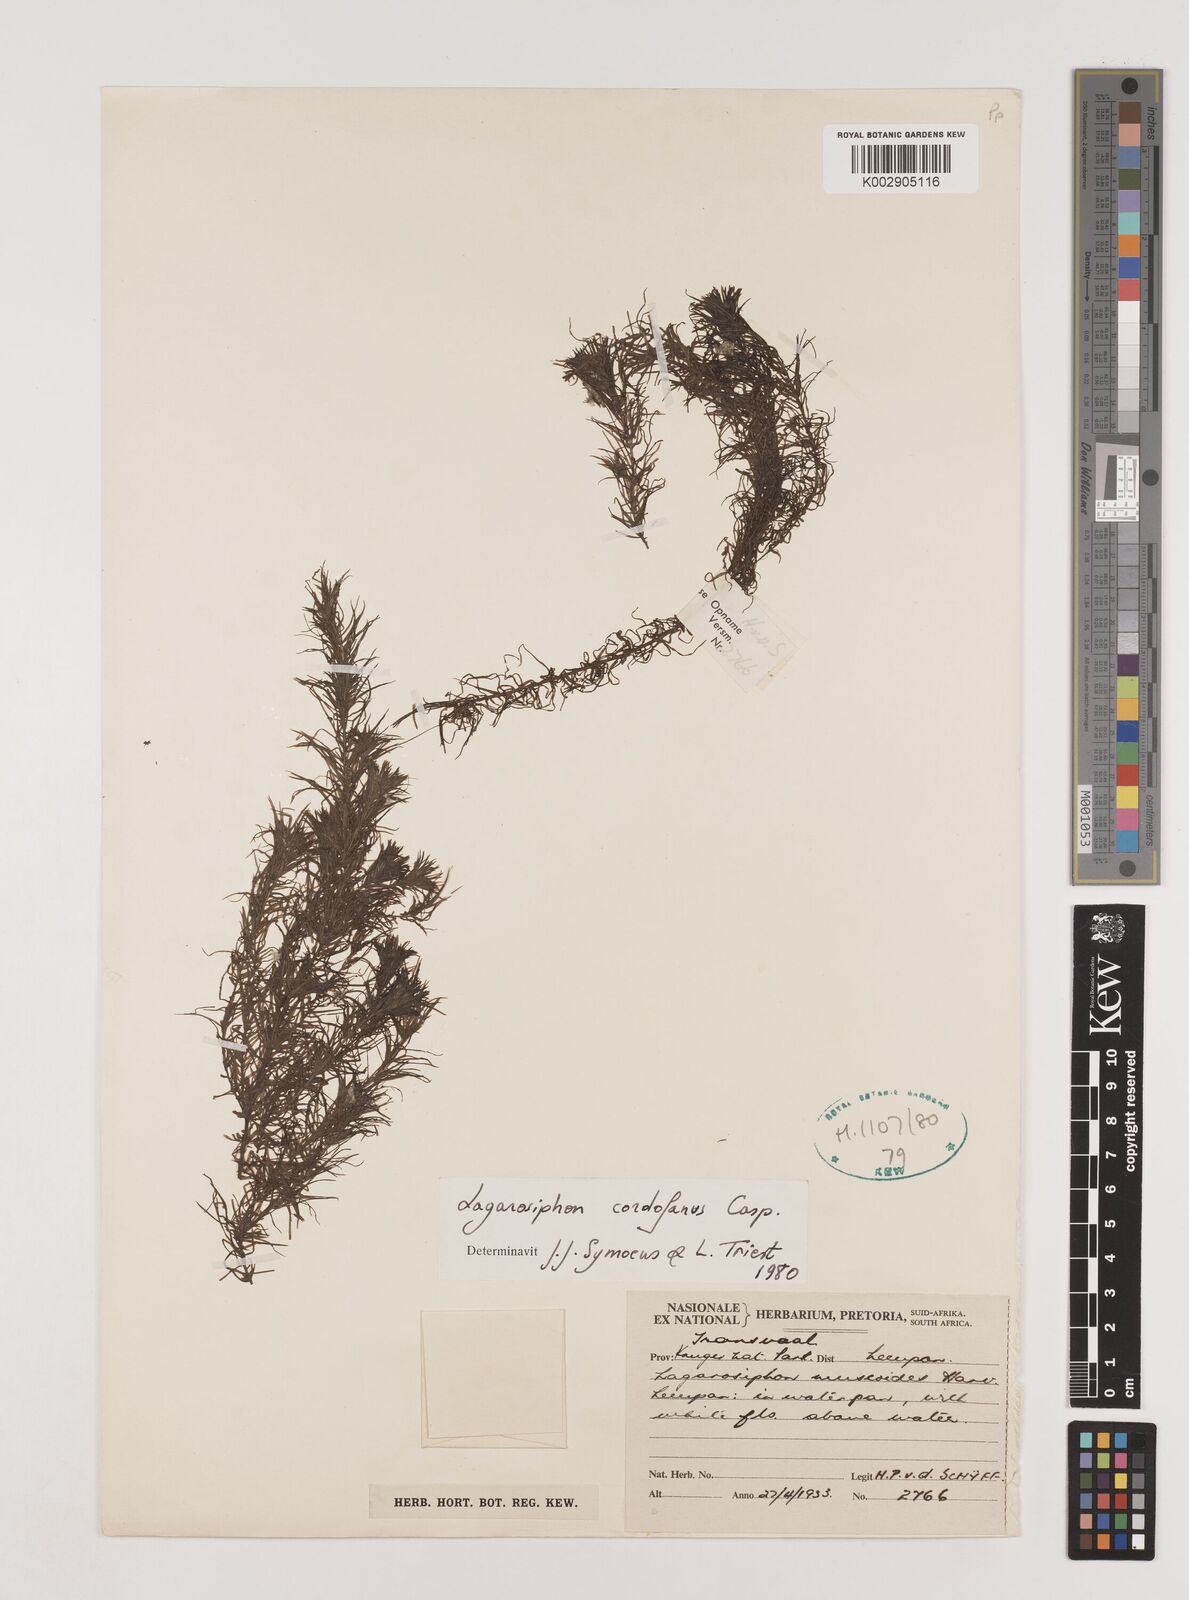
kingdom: Plantae
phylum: Tracheophyta
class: Liliopsida
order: Alismatales
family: Hydrocharitaceae
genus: Lagarosiphon
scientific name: Lagarosiphon cordofanus
